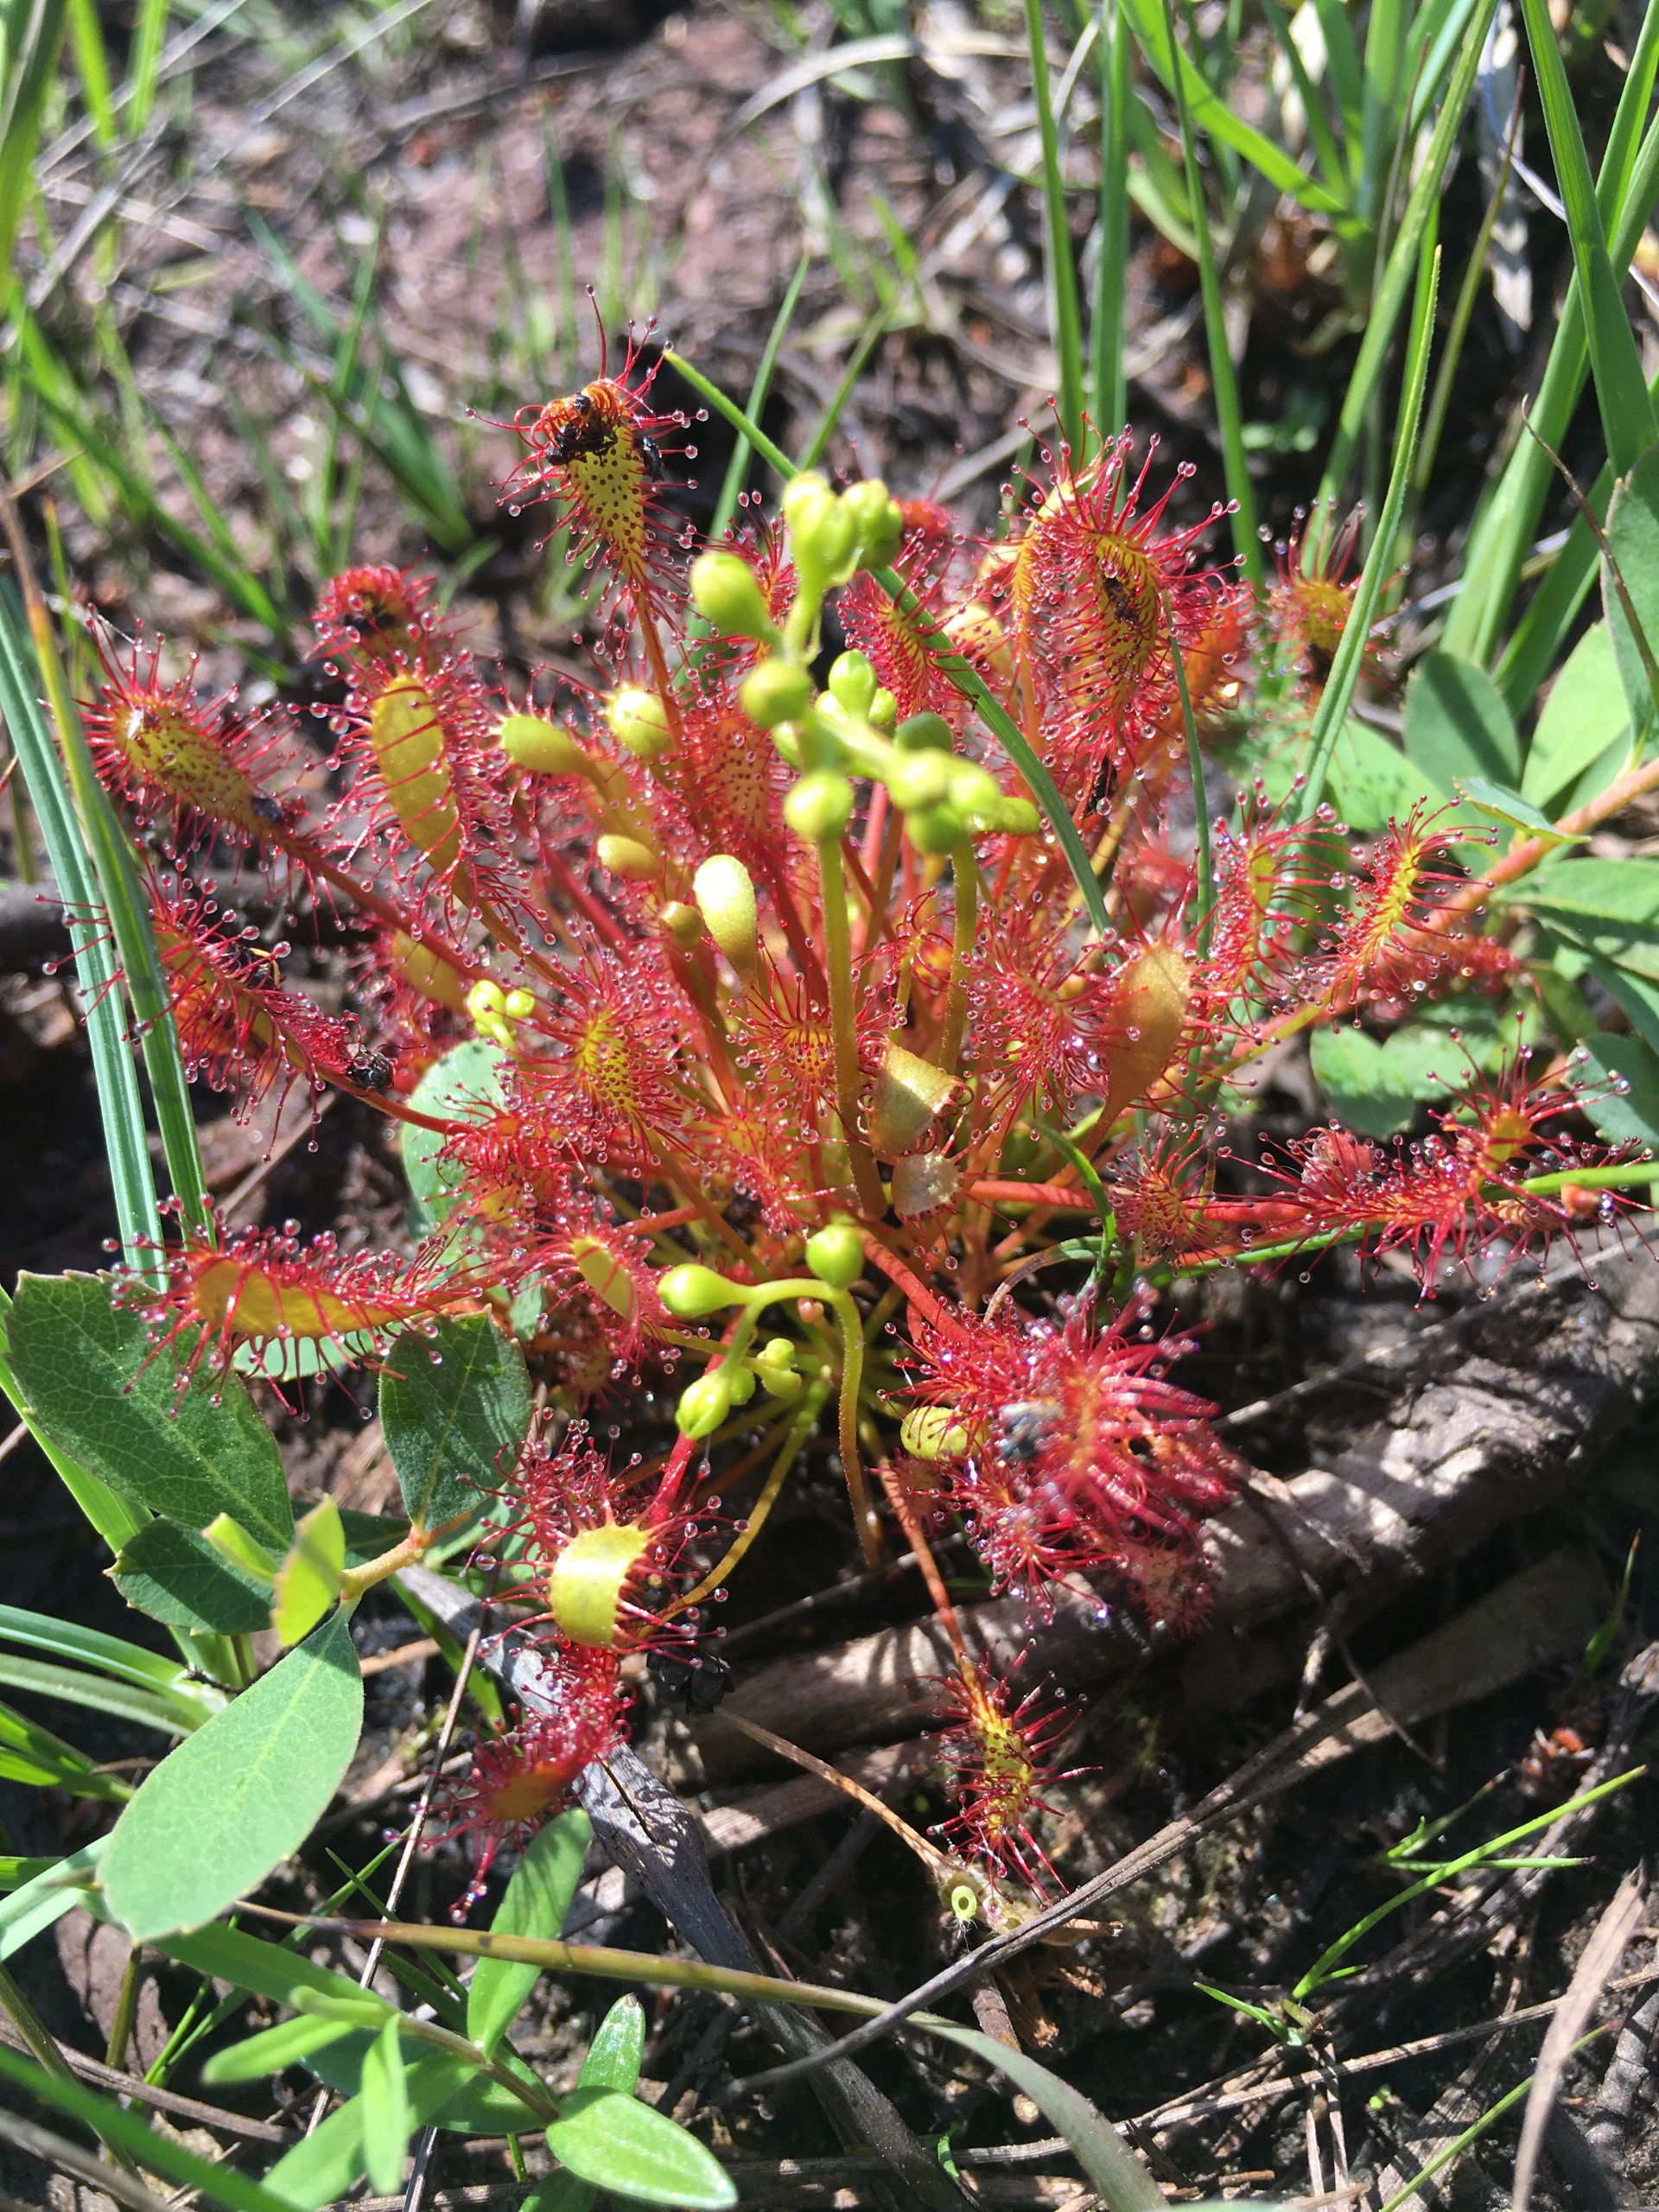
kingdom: Plantae
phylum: Tracheophyta
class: Magnoliopsida
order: Caryophyllales
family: Droseraceae
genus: Drosera
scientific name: Drosera intermedia
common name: Liden soldug
